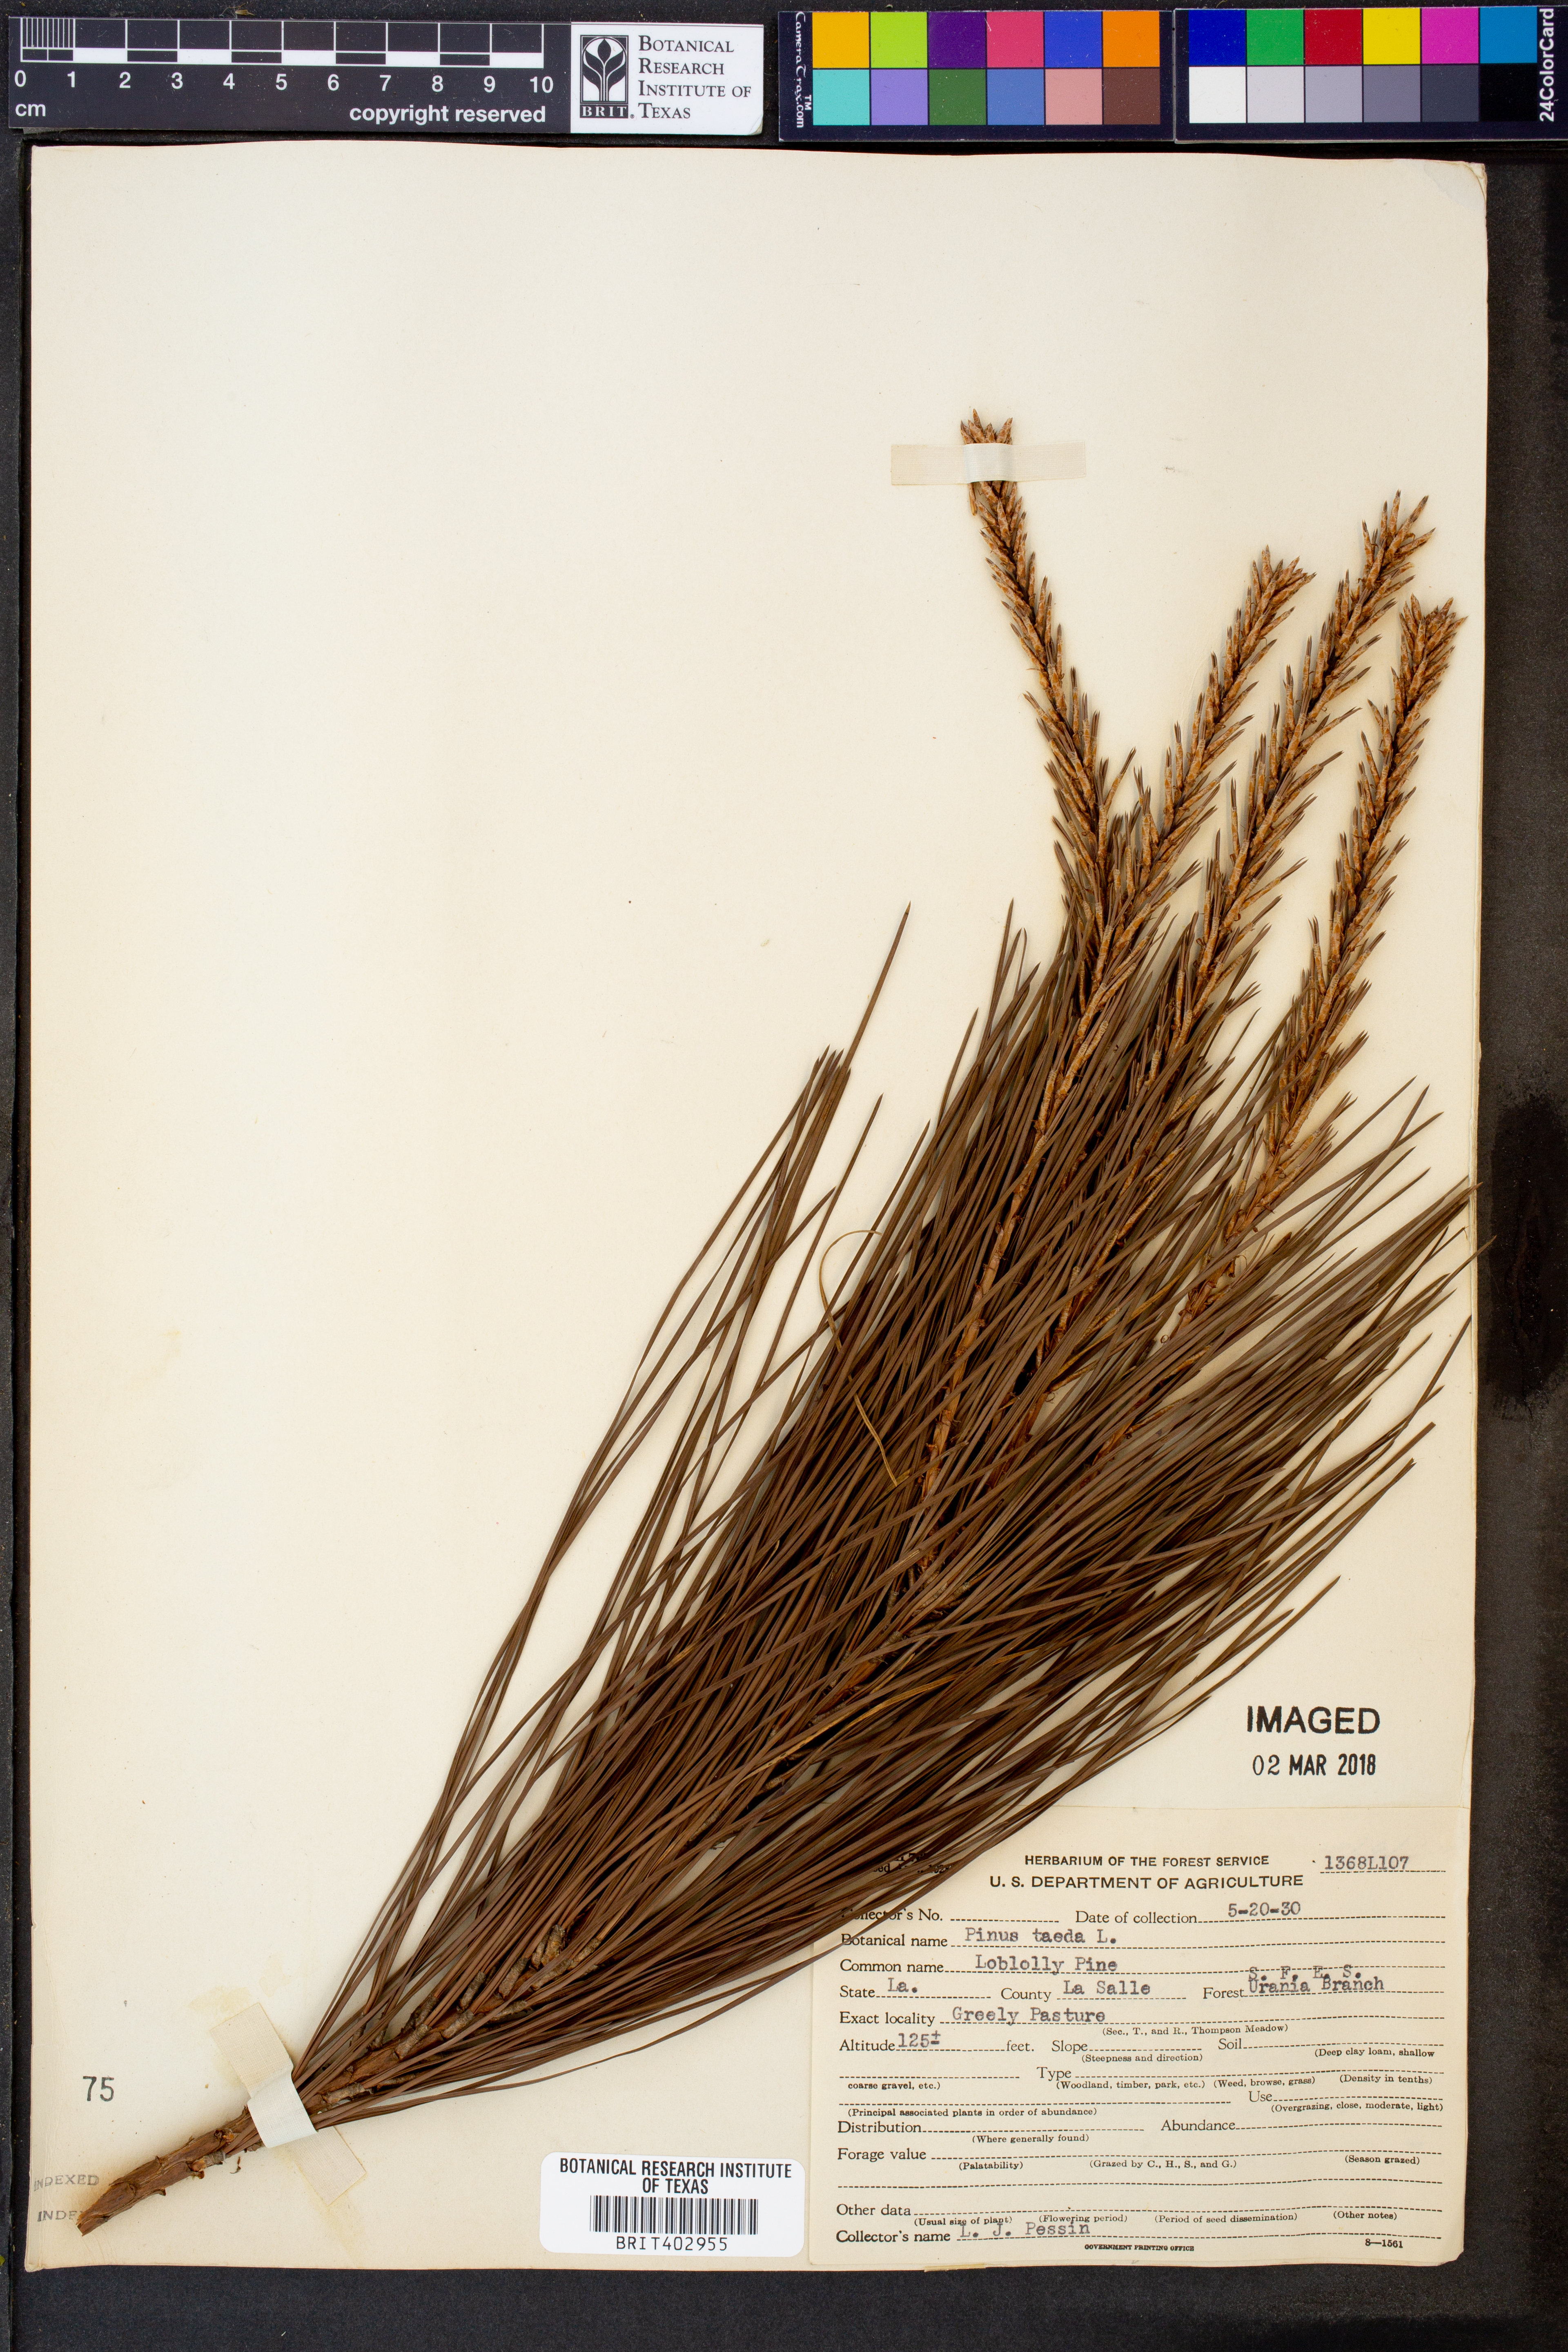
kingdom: Plantae
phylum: Tracheophyta
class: Pinopsida
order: Pinales
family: Pinaceae
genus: Pinus
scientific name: Pinus taeda
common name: Loblolly pine
